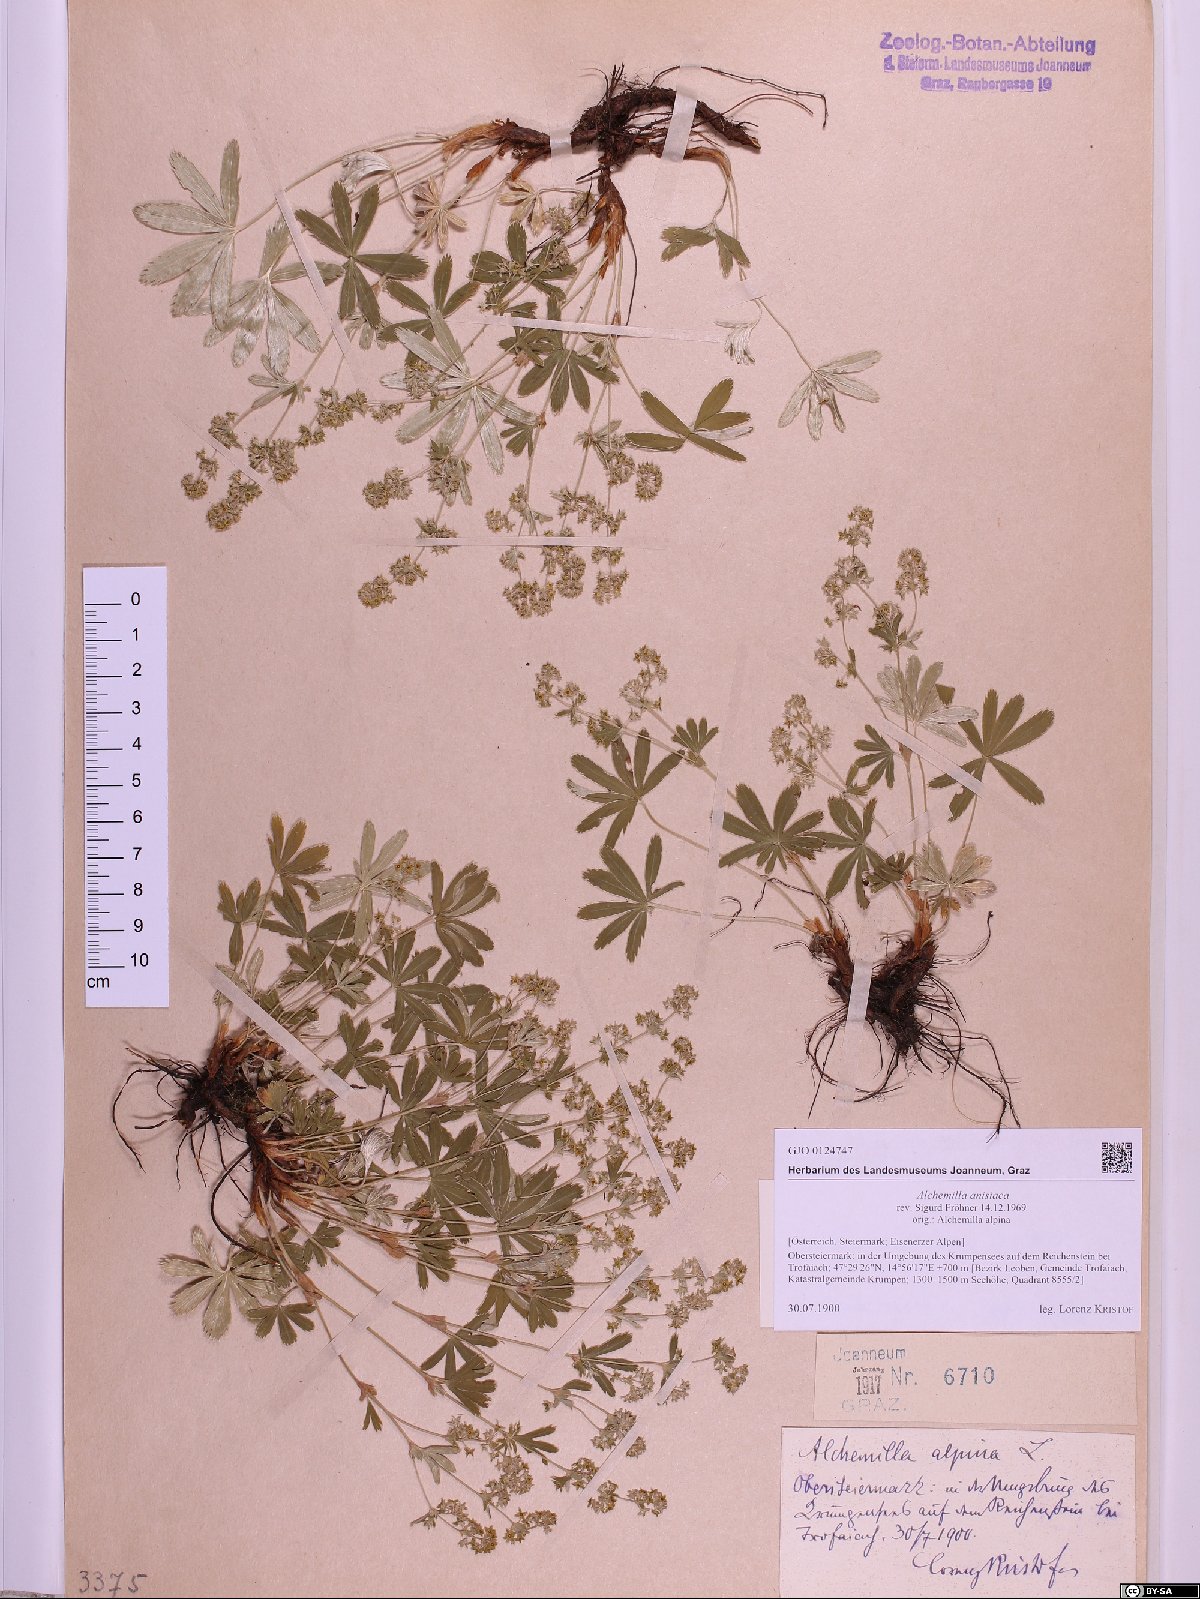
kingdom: Plantae
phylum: Tracheophyta
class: Magnoliopsida
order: Rosales
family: Rosaceae
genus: Alchemilla
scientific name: Alchemilla anisiaca
